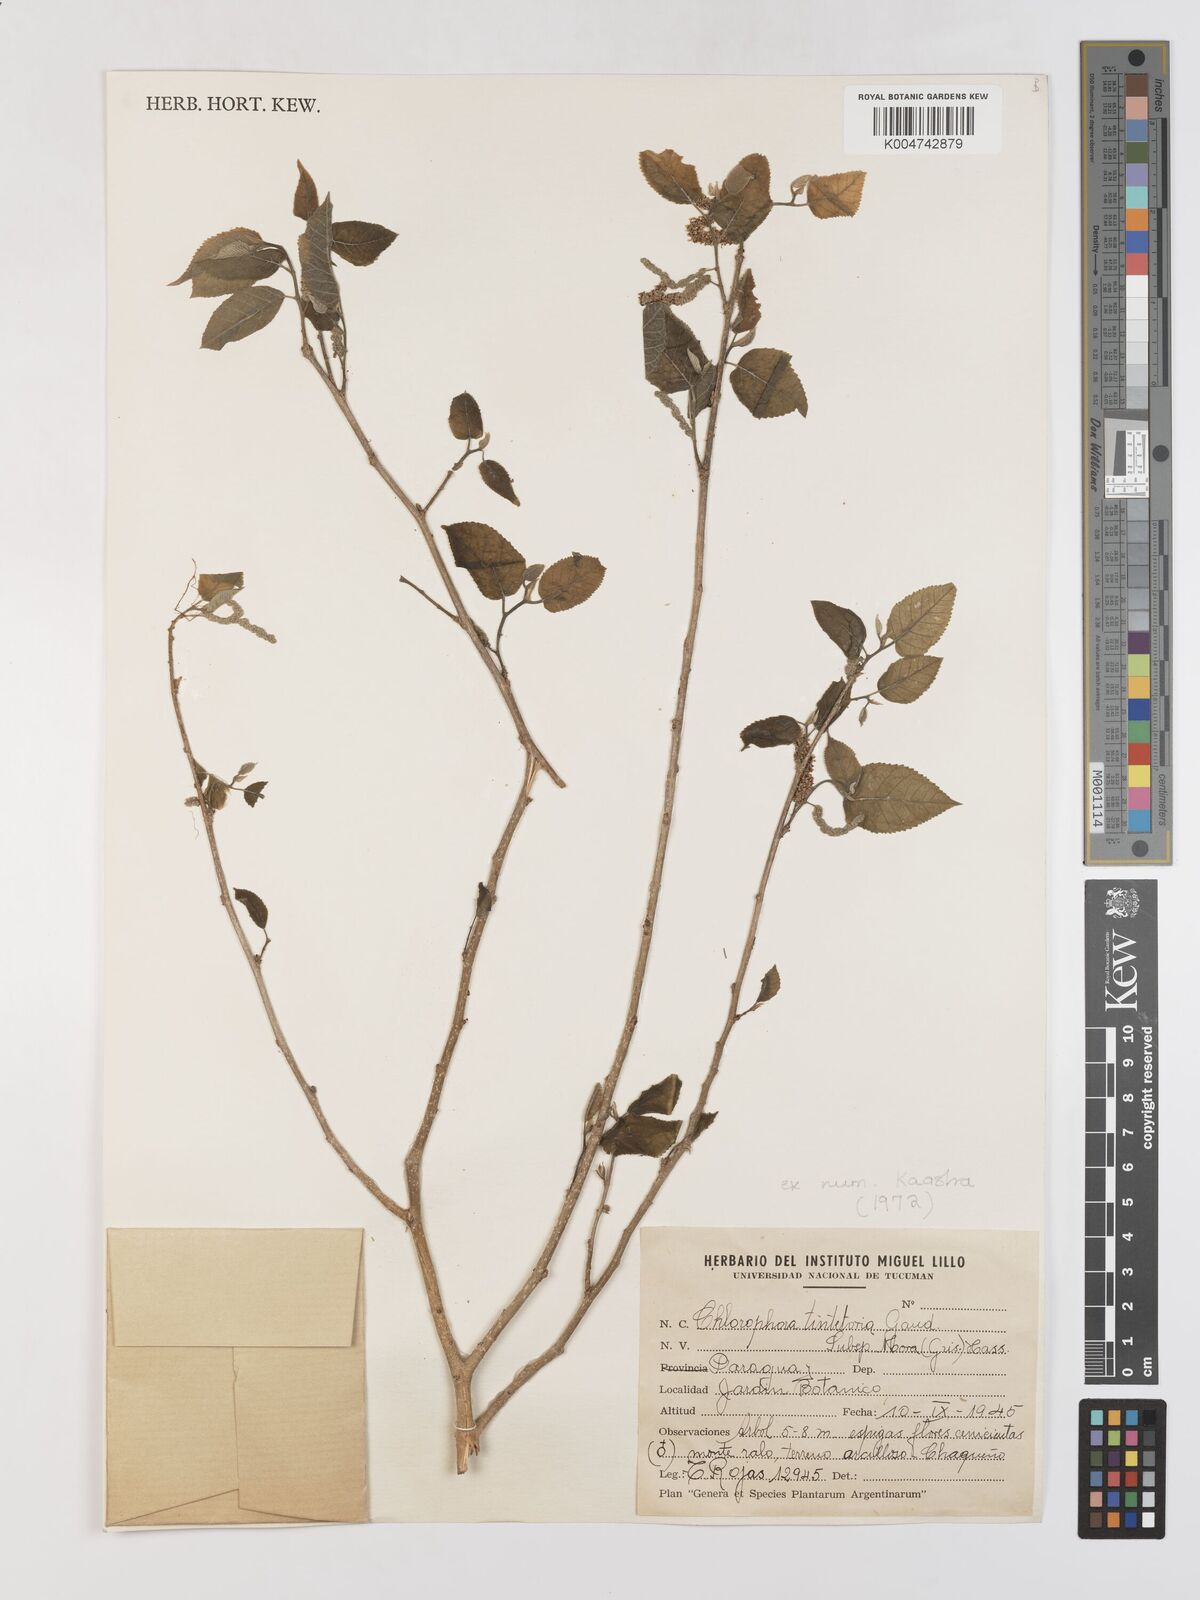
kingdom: Plantae
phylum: Tracheophyta
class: Magnoliopsida
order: Rosales
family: Moraceae
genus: Maclura
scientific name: Maclura tinctoria
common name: Old fustic
